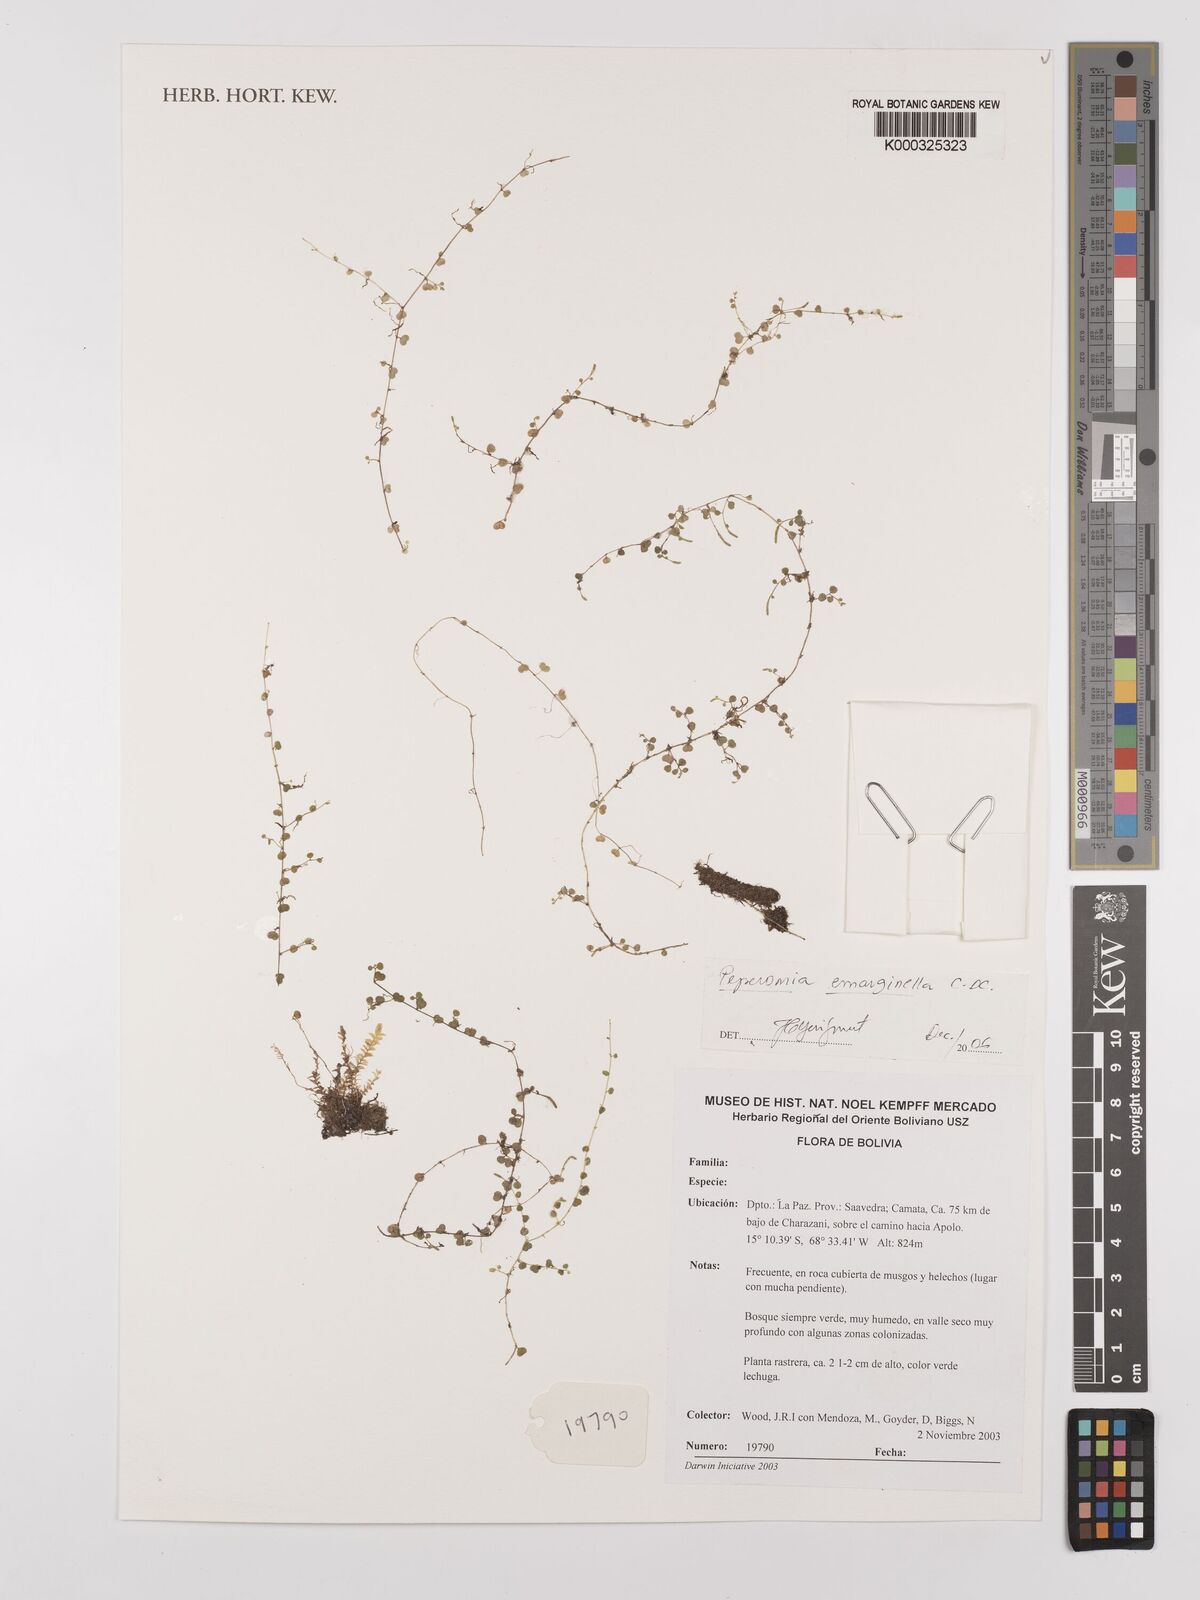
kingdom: Plantae
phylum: Tracheophyta
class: Magnoliopsida
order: Piperales
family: Piperaceae
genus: Peperomia
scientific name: Peperomia emarginella
